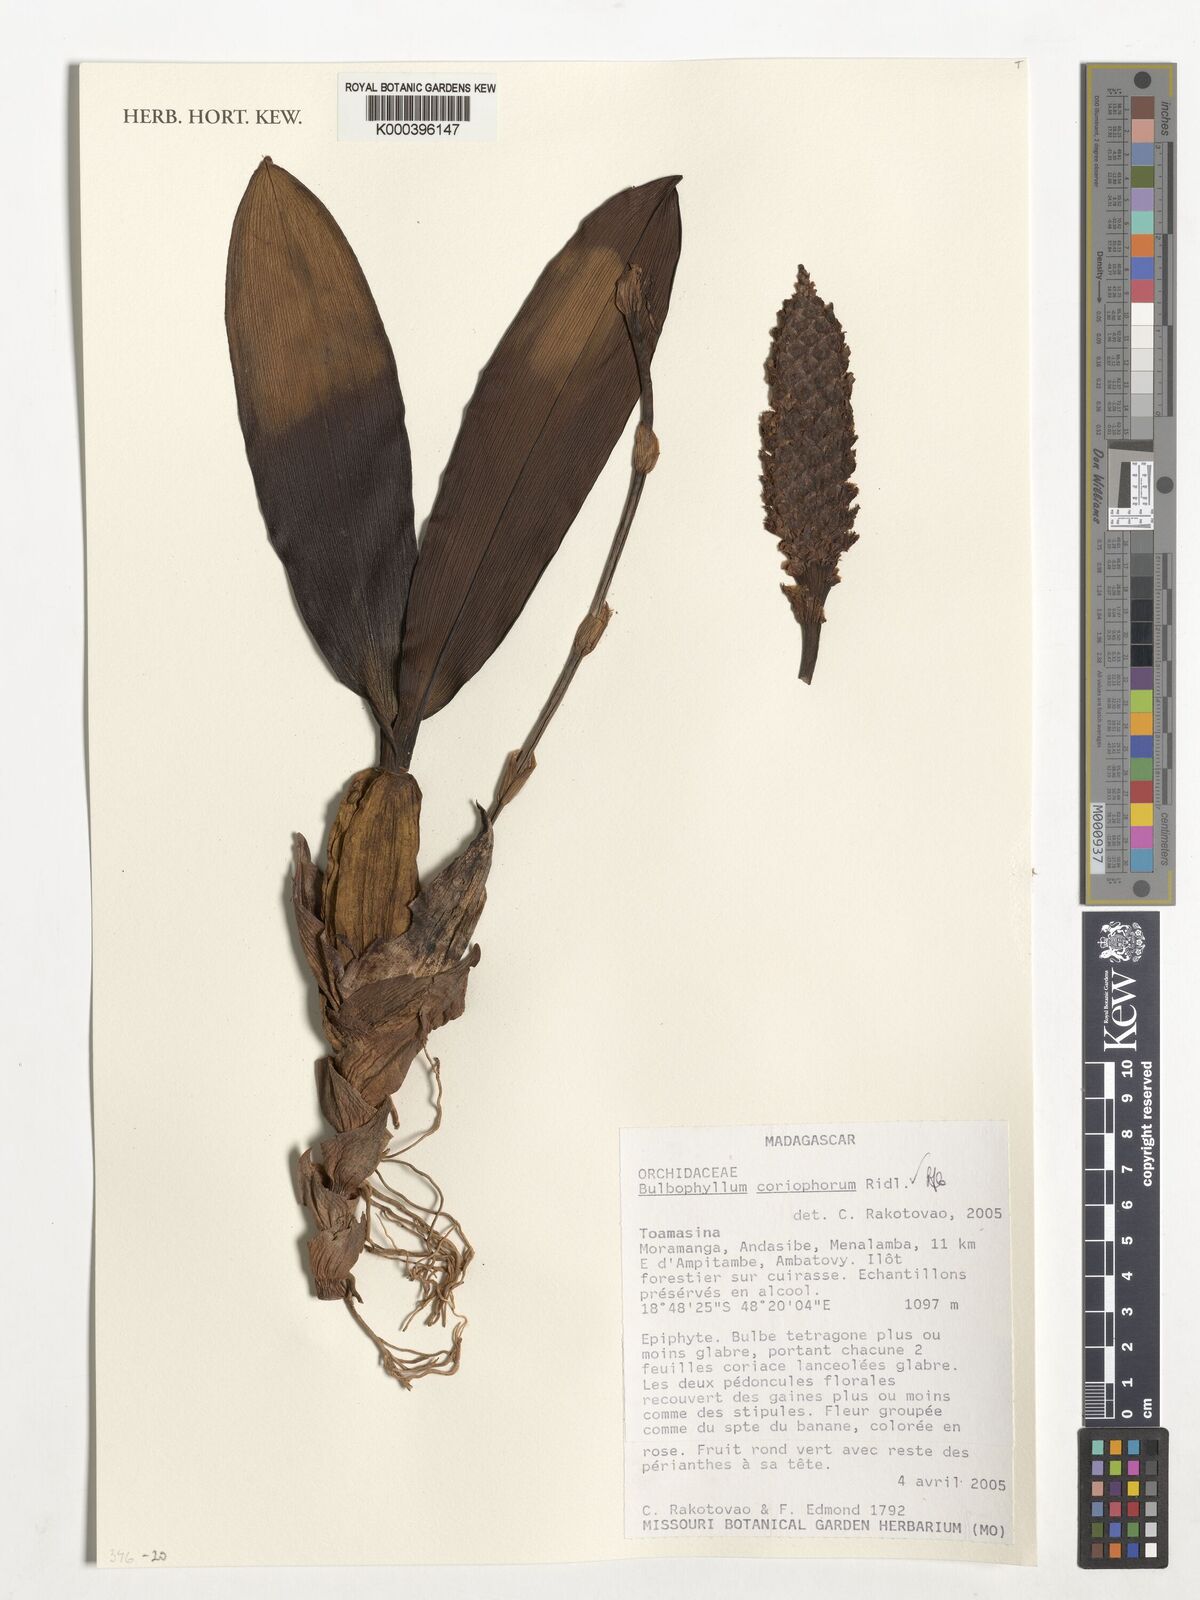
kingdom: Plantae
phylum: Tracheophyta
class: Liliopsida
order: Asparagales
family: Orchidaceae
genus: Bulbophyllum
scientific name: Bulbophyllum coriophorum
